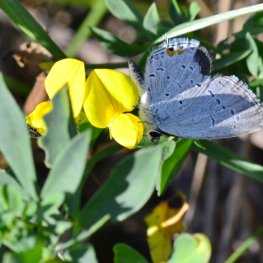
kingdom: Animalia
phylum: Arthropoda
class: Insecta
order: Lepidoptera
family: Lycaenidae
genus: Elkalyce
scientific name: Elkalyce comyntas
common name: Eastern Tailed-Blue
